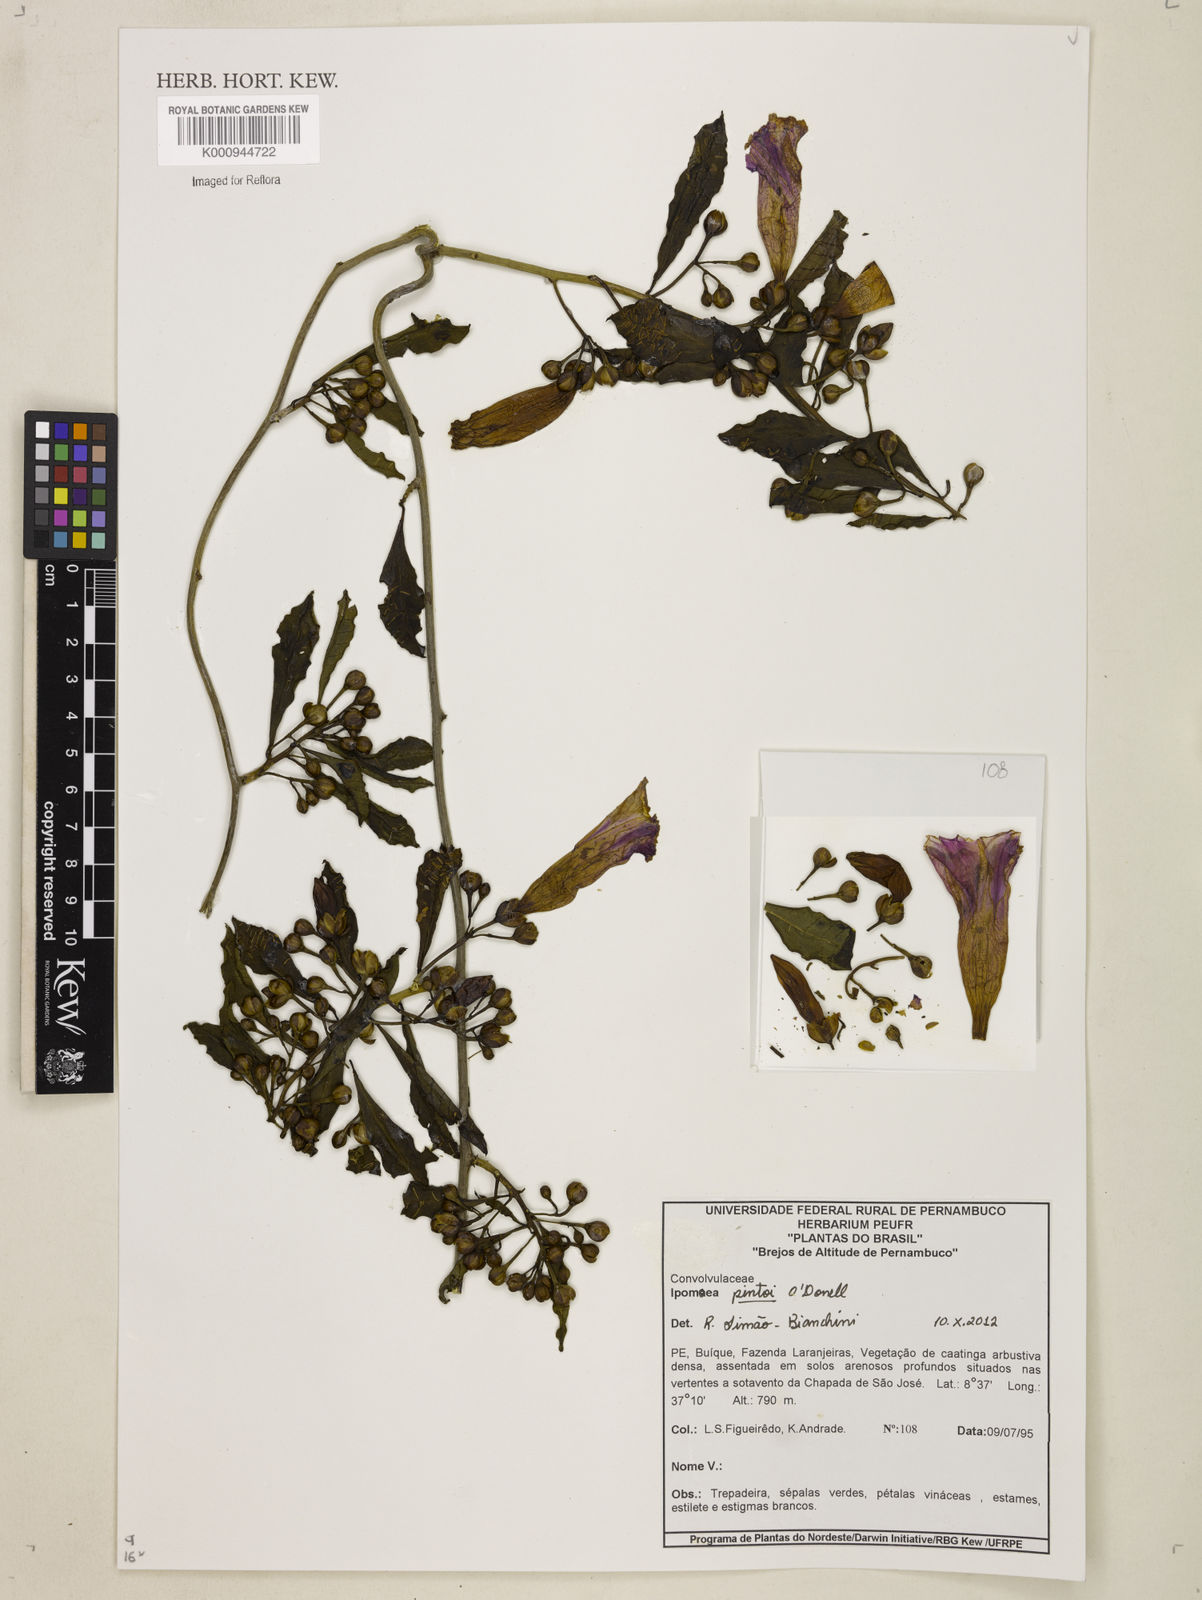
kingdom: Plantae
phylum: Tracheophyta
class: Magnoliopsida
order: Solanales
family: Convolvulaceae
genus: Ipomoea
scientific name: Ipomoea pintoi
